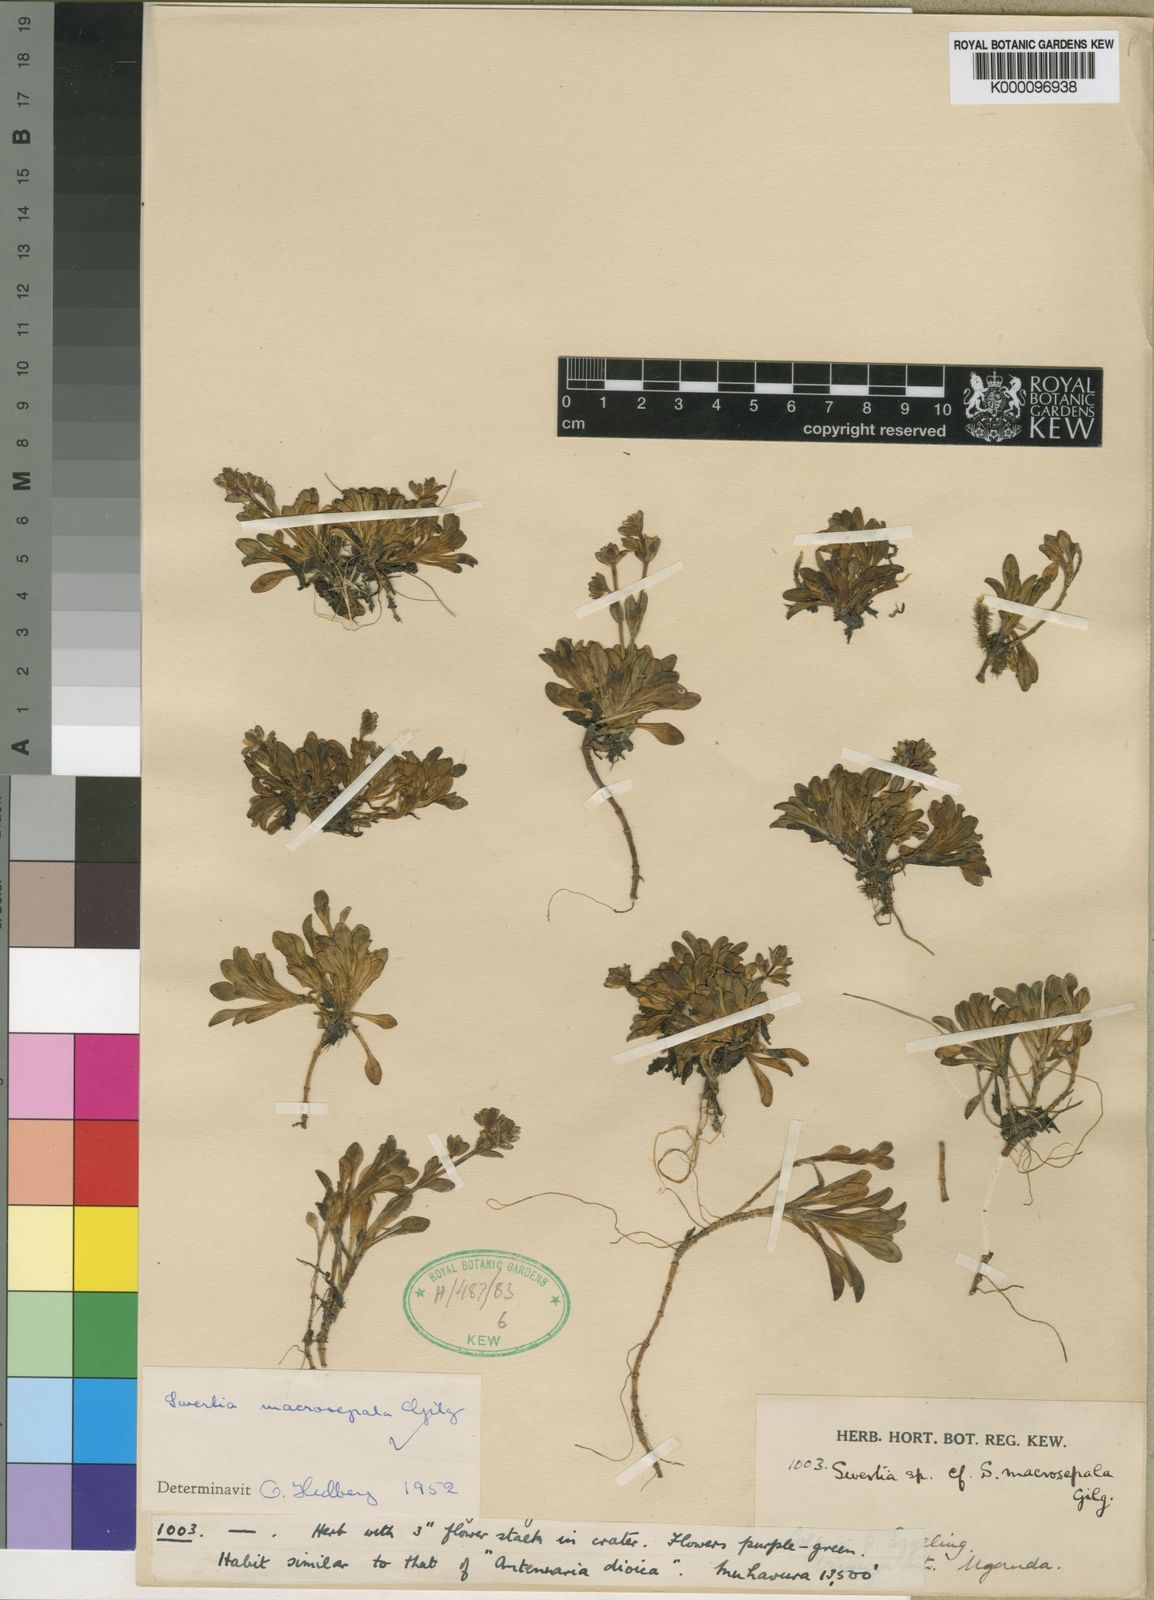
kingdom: Plantae
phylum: Tracheophyta
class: Magnoliopsida
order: Gentianales
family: Gentianaceae
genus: Swertia
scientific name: Swertia macrosepala
